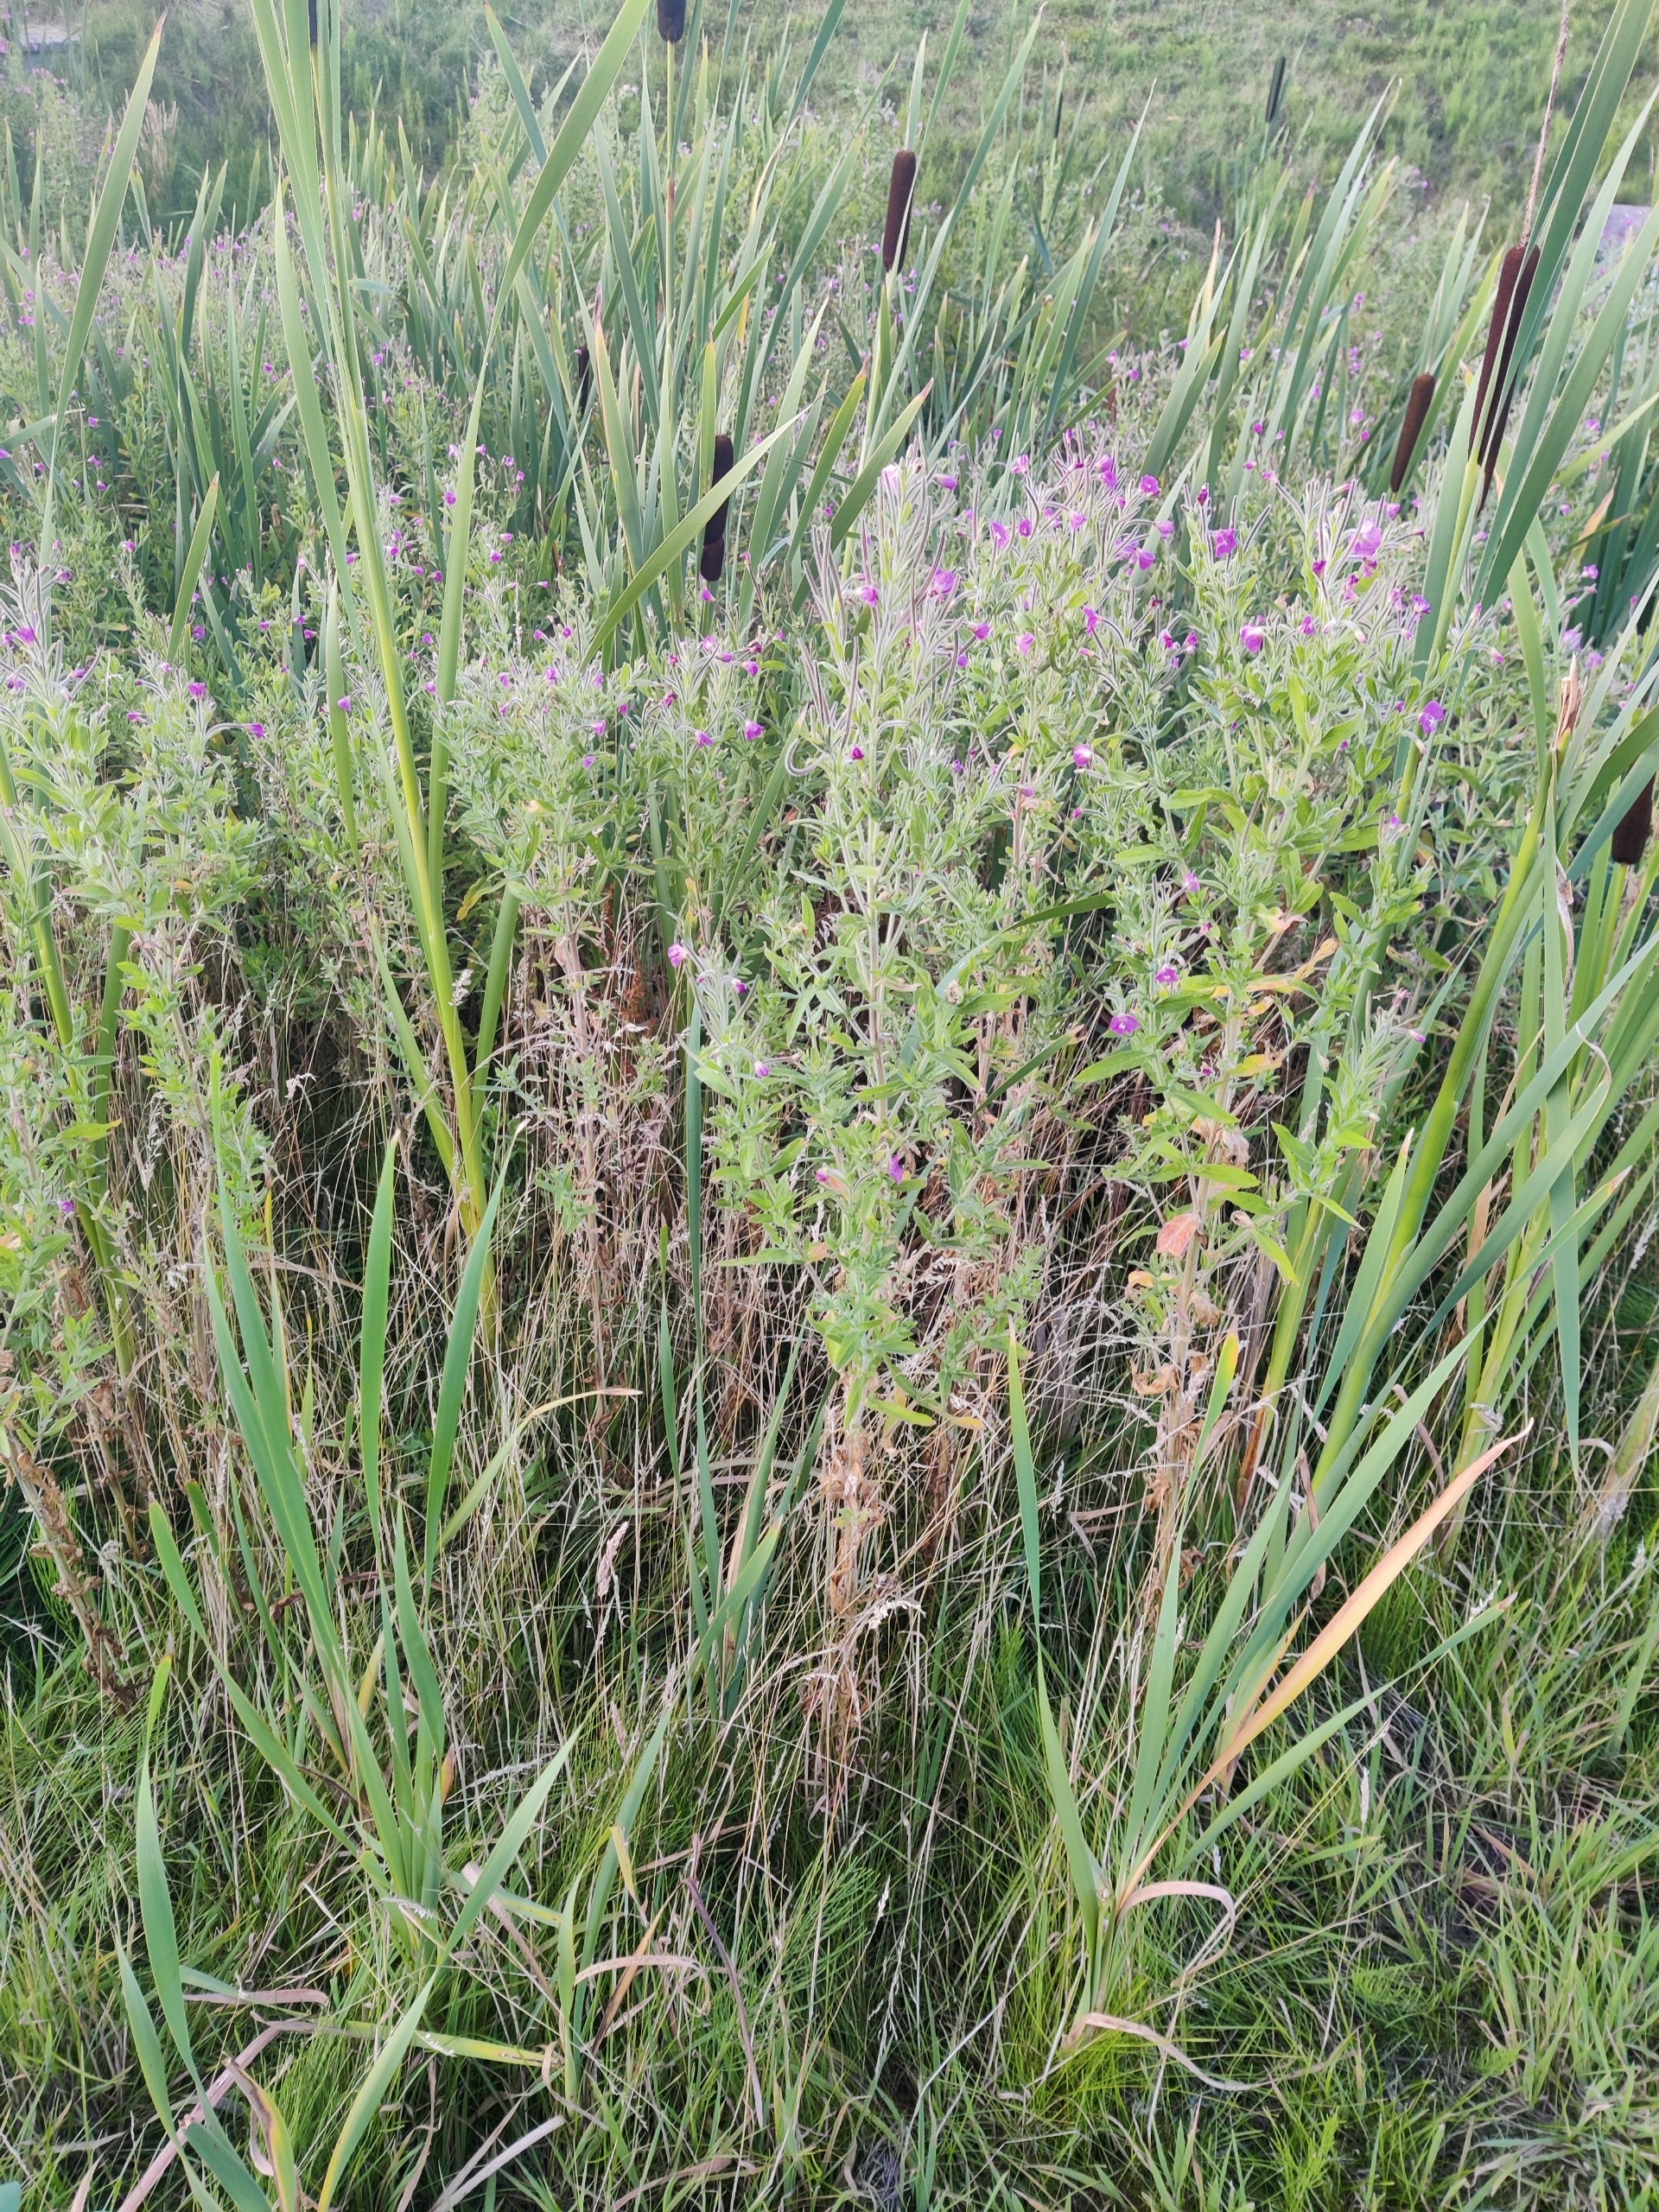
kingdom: Plantae
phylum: Tracheophyta
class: Magnoliopsida
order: Myrtales
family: Onagraceae
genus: Epilobium
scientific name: Epilobium hirsutum
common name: Lådden dueurt
